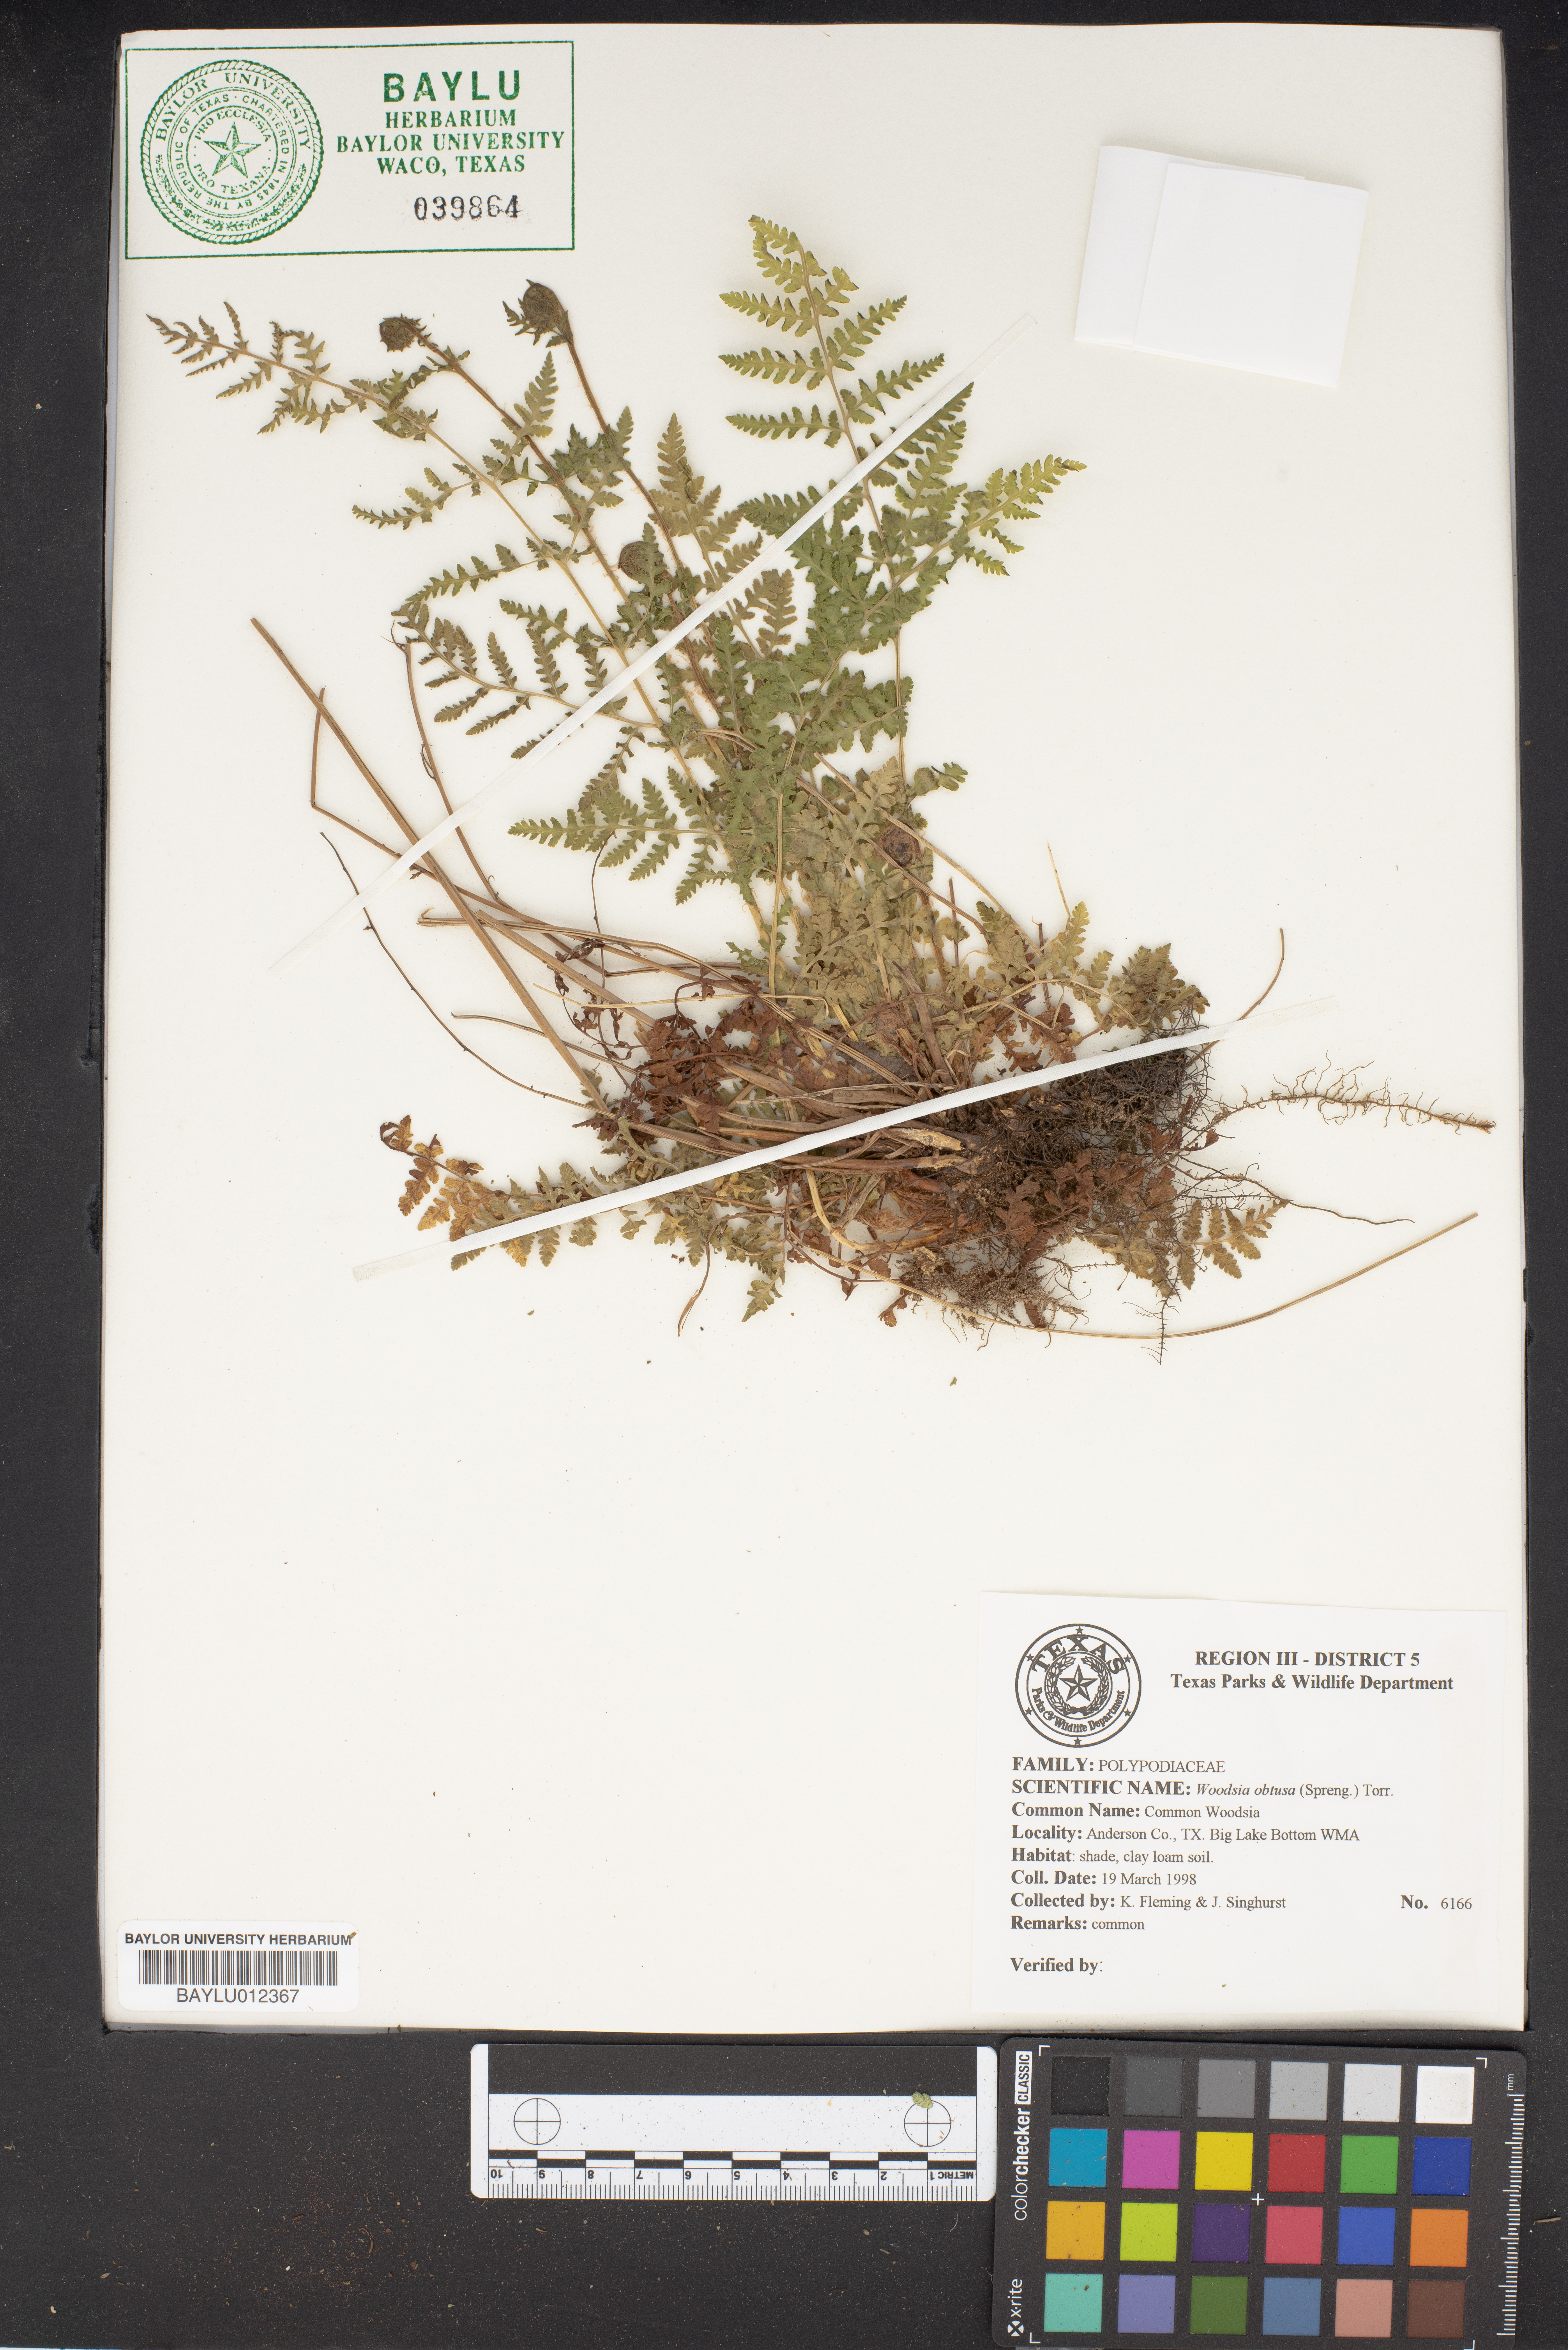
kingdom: Plantae
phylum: Tracheophyta
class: Polypodiopsida
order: Polypodiales
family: Woodsiaceae
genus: Physematium
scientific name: Physematium obtusum
